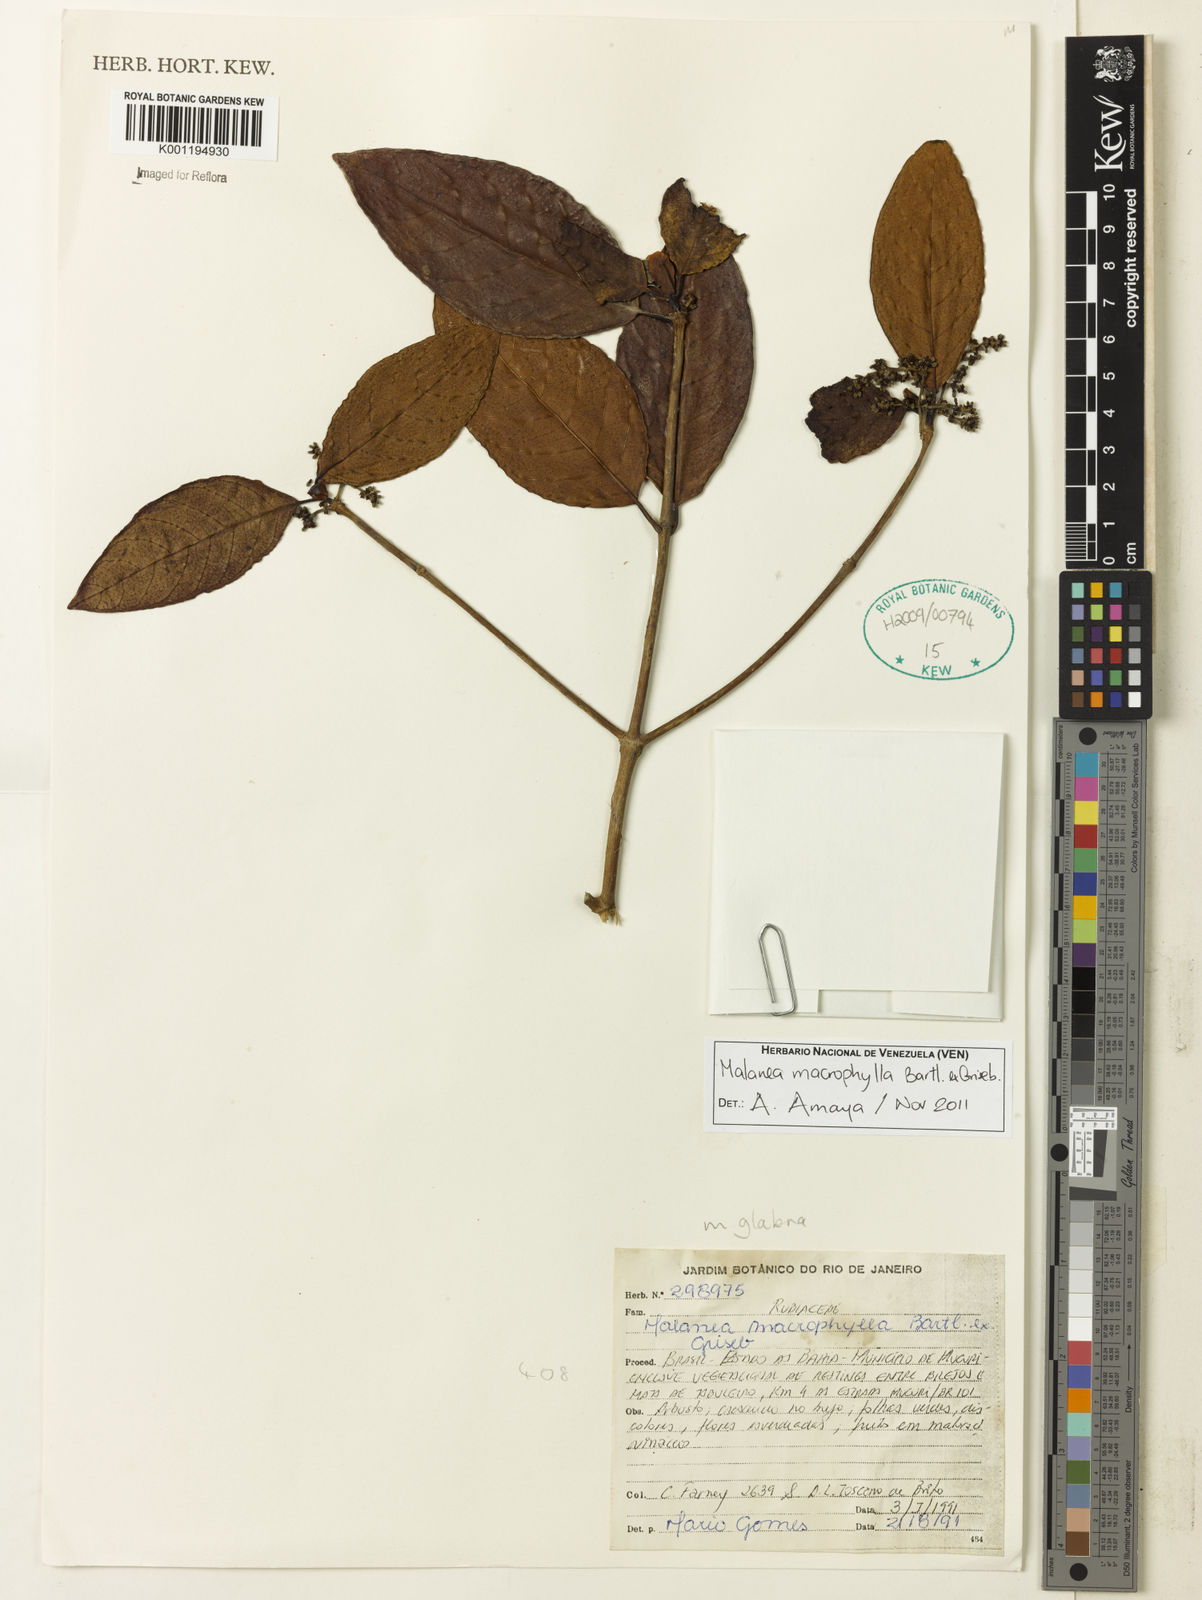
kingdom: Plantae
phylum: Tracheophyta
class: Magnoliopsida
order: Gentianales
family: Rubiaceae
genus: Malanea
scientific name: Malanea glabra
